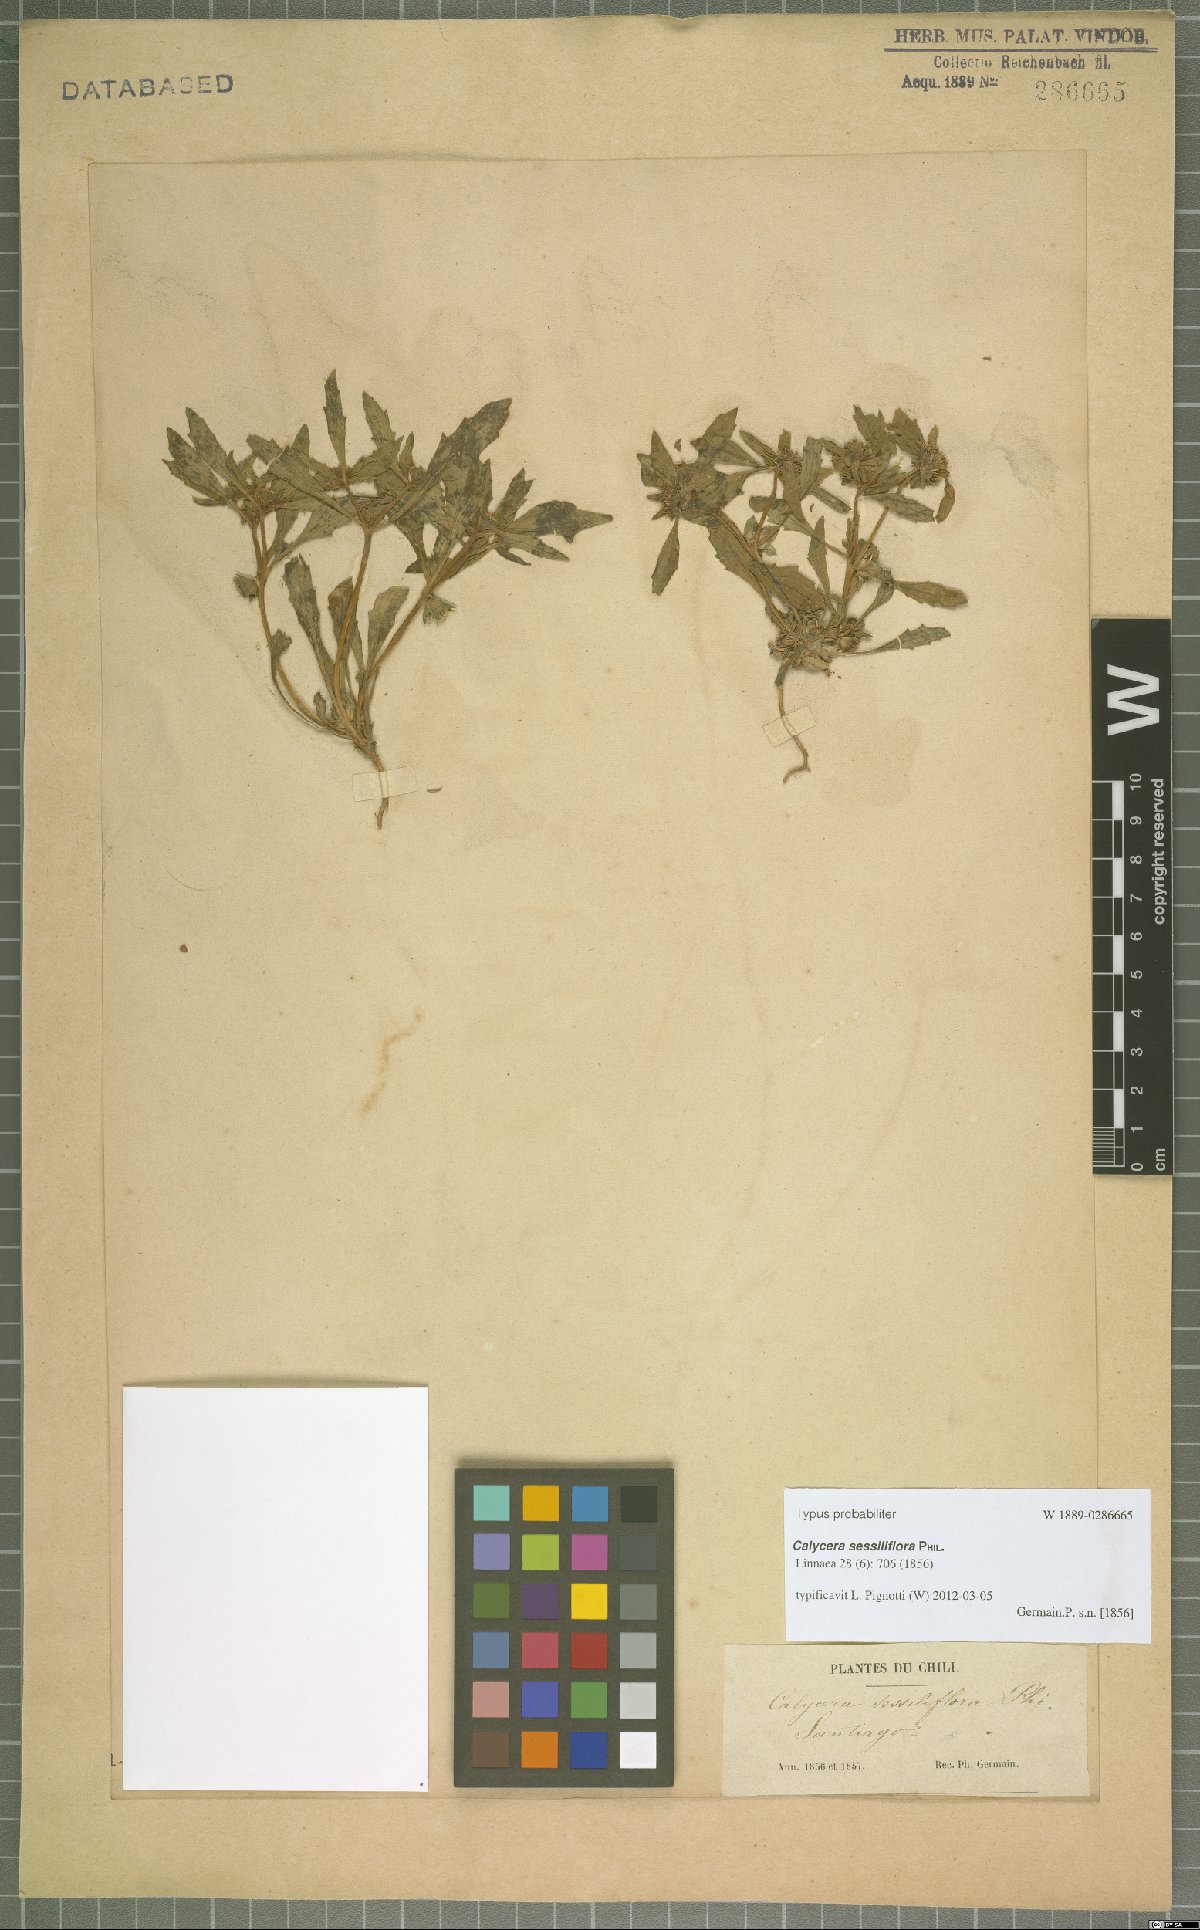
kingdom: Plantae
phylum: Tracheophyta
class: Magnoliopsida
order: Asterales
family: Calyceraceae
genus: Leucocera
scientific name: Leucocera sessiliflora
